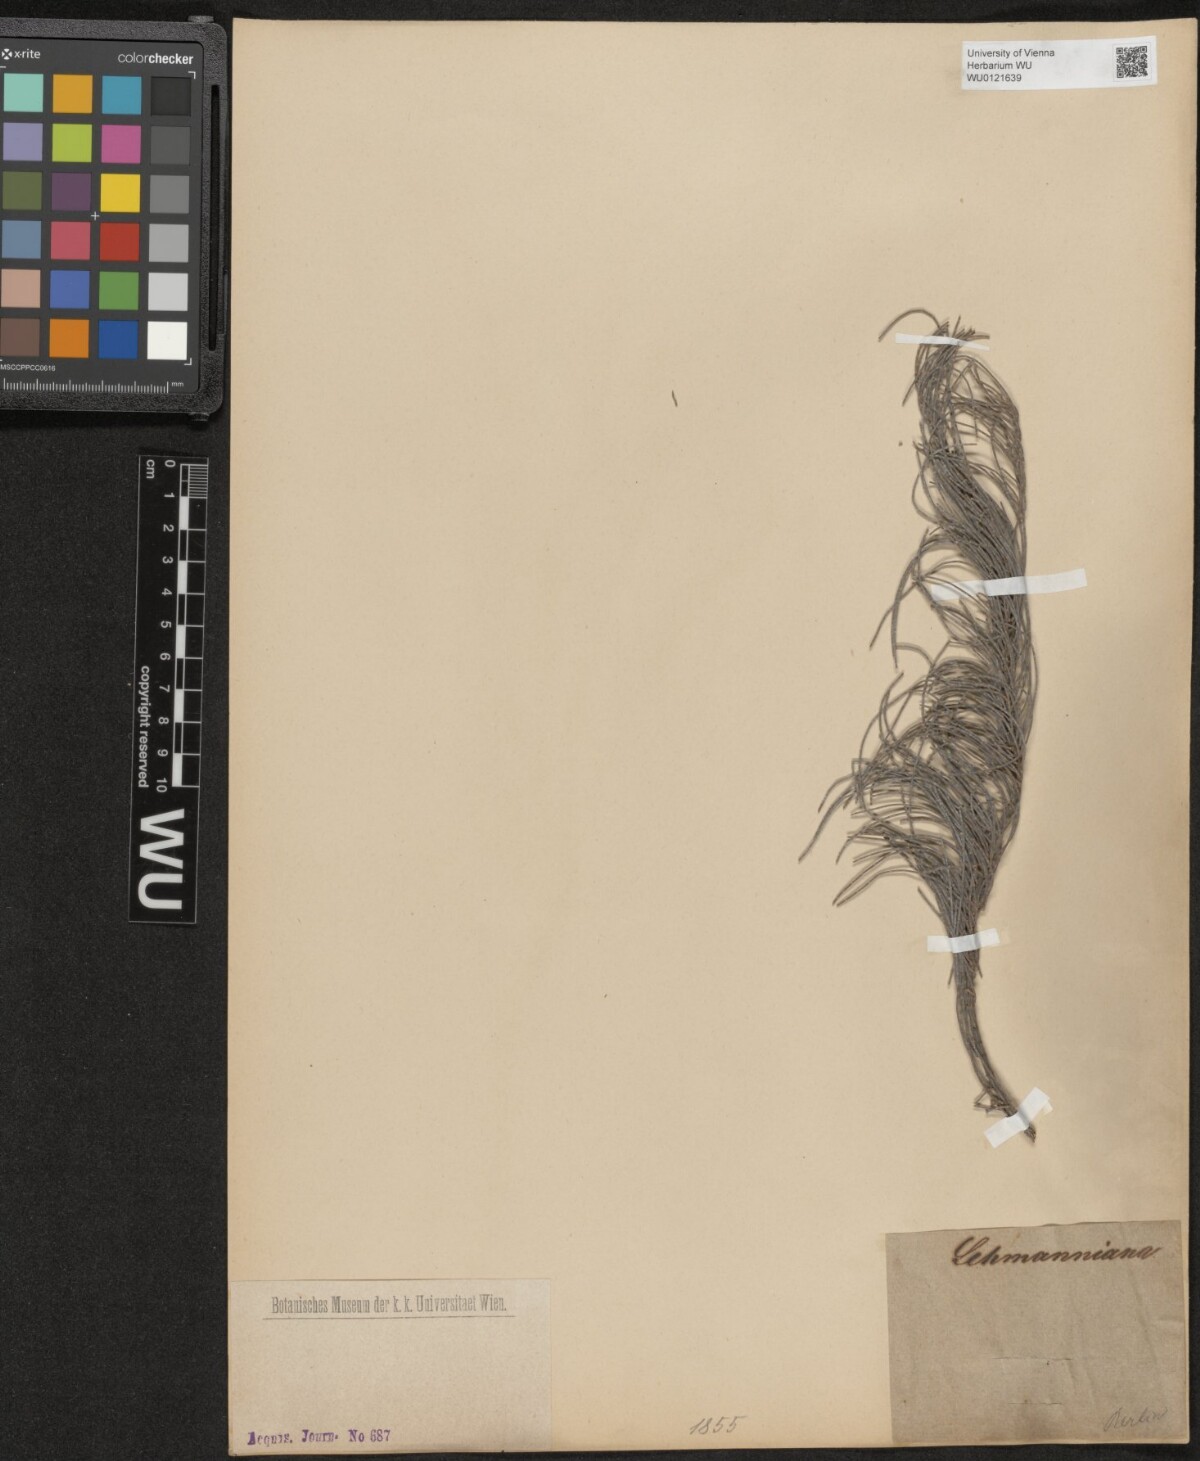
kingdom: Plantae
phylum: Tracheophyta
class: Magnoliopsida
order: Fagales
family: Casuarinaceae
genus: Allocasuarina
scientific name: Allocasuarina lehmanniana
